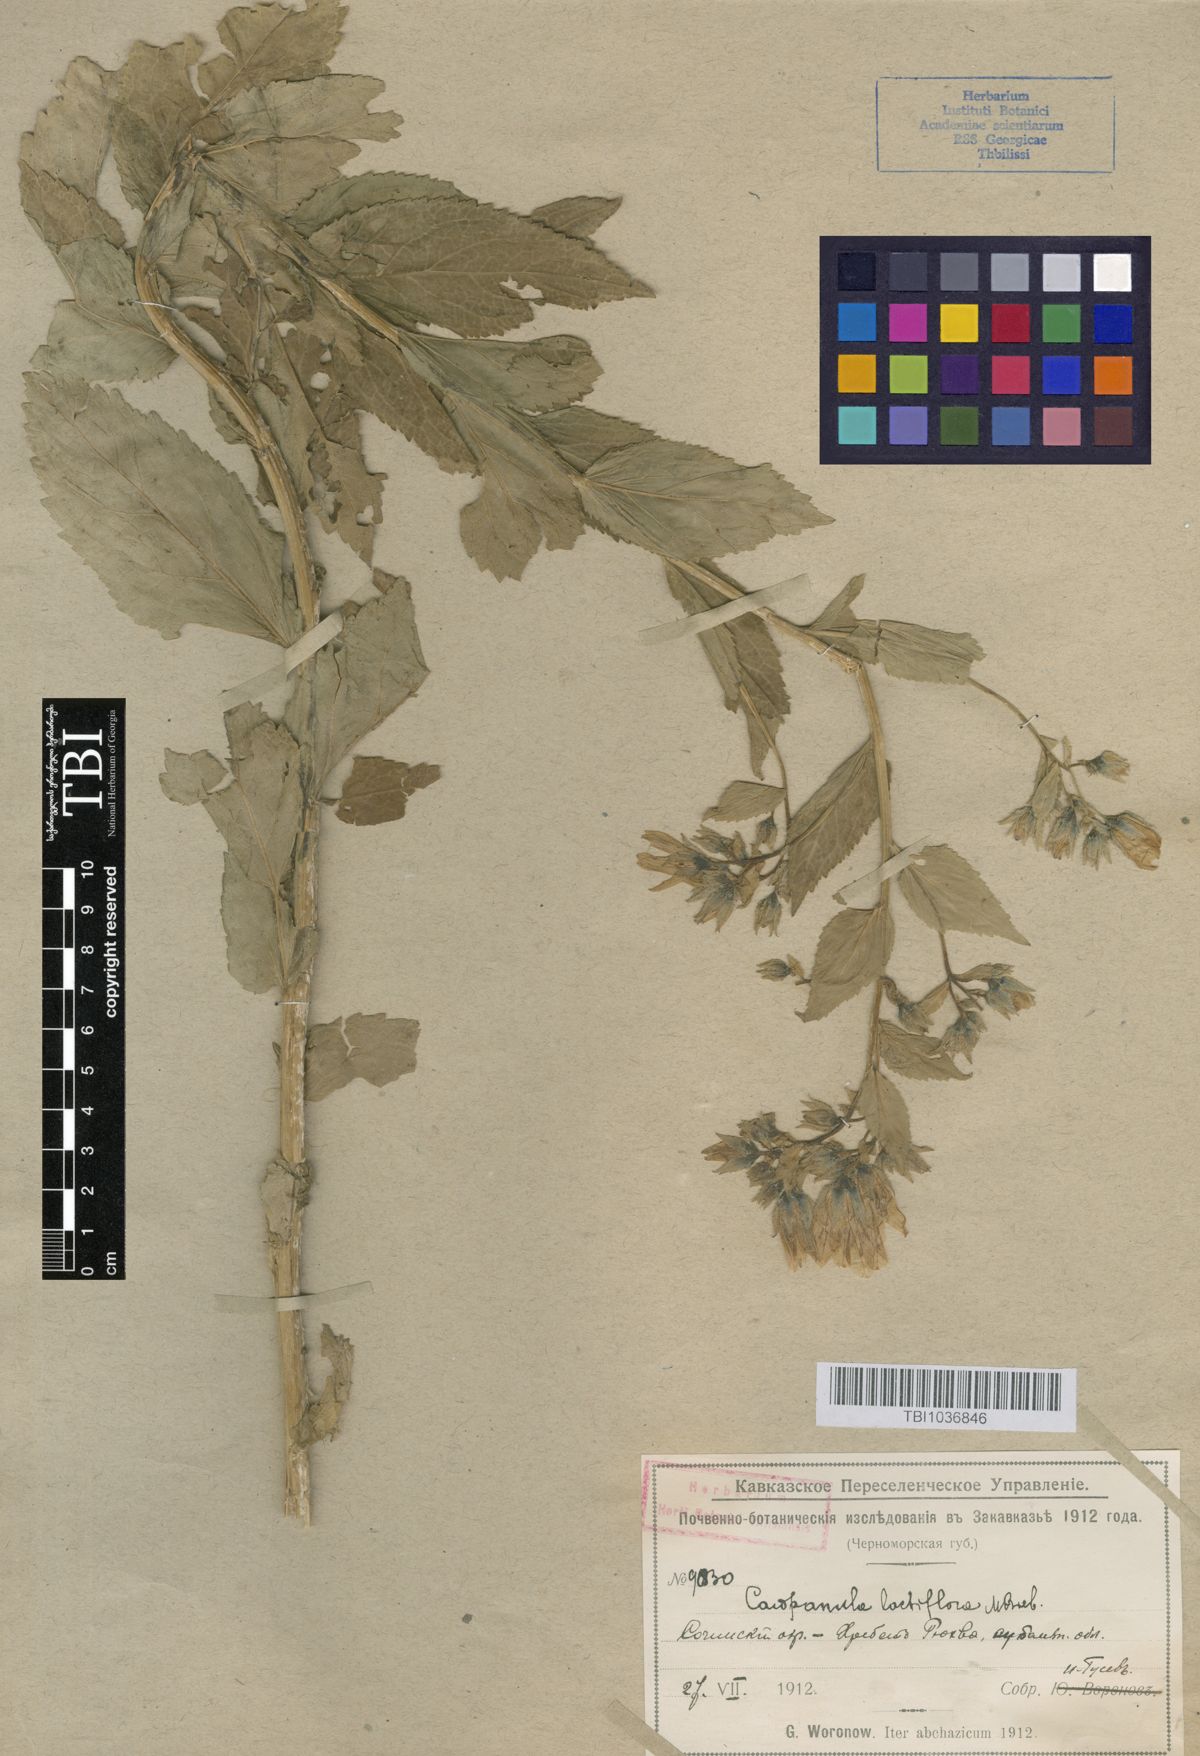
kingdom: Plantae
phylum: Tracheophyta
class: Magnoliopsida
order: Asterales
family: Campanulaceae
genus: Campanula
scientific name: Campanula lactiflora
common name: Milky bellflower
